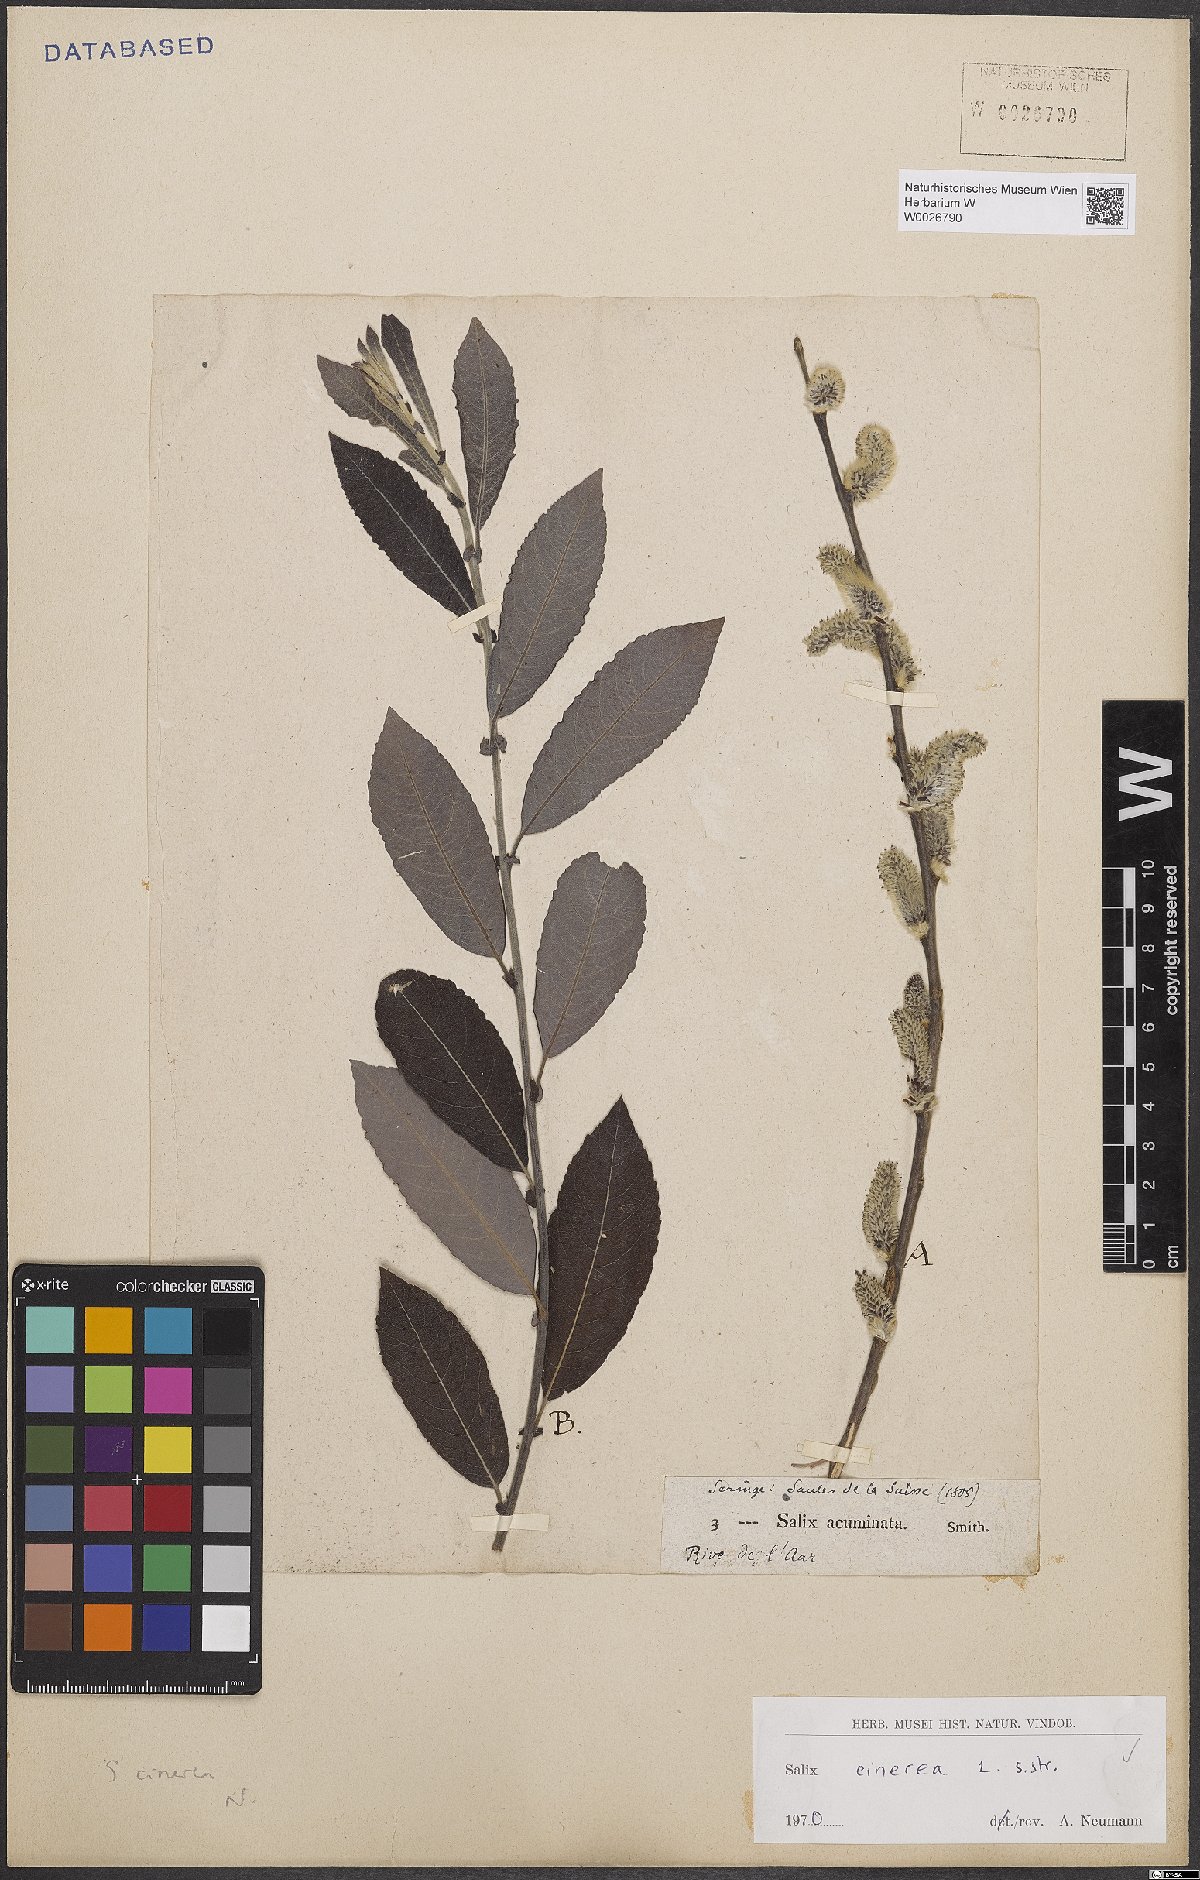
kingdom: Plantae
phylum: Tracheophyta
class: Magnoliopsida
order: Malpighiales
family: Salicaceae
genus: Salix
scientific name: Salix cinerea
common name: Common sallow
